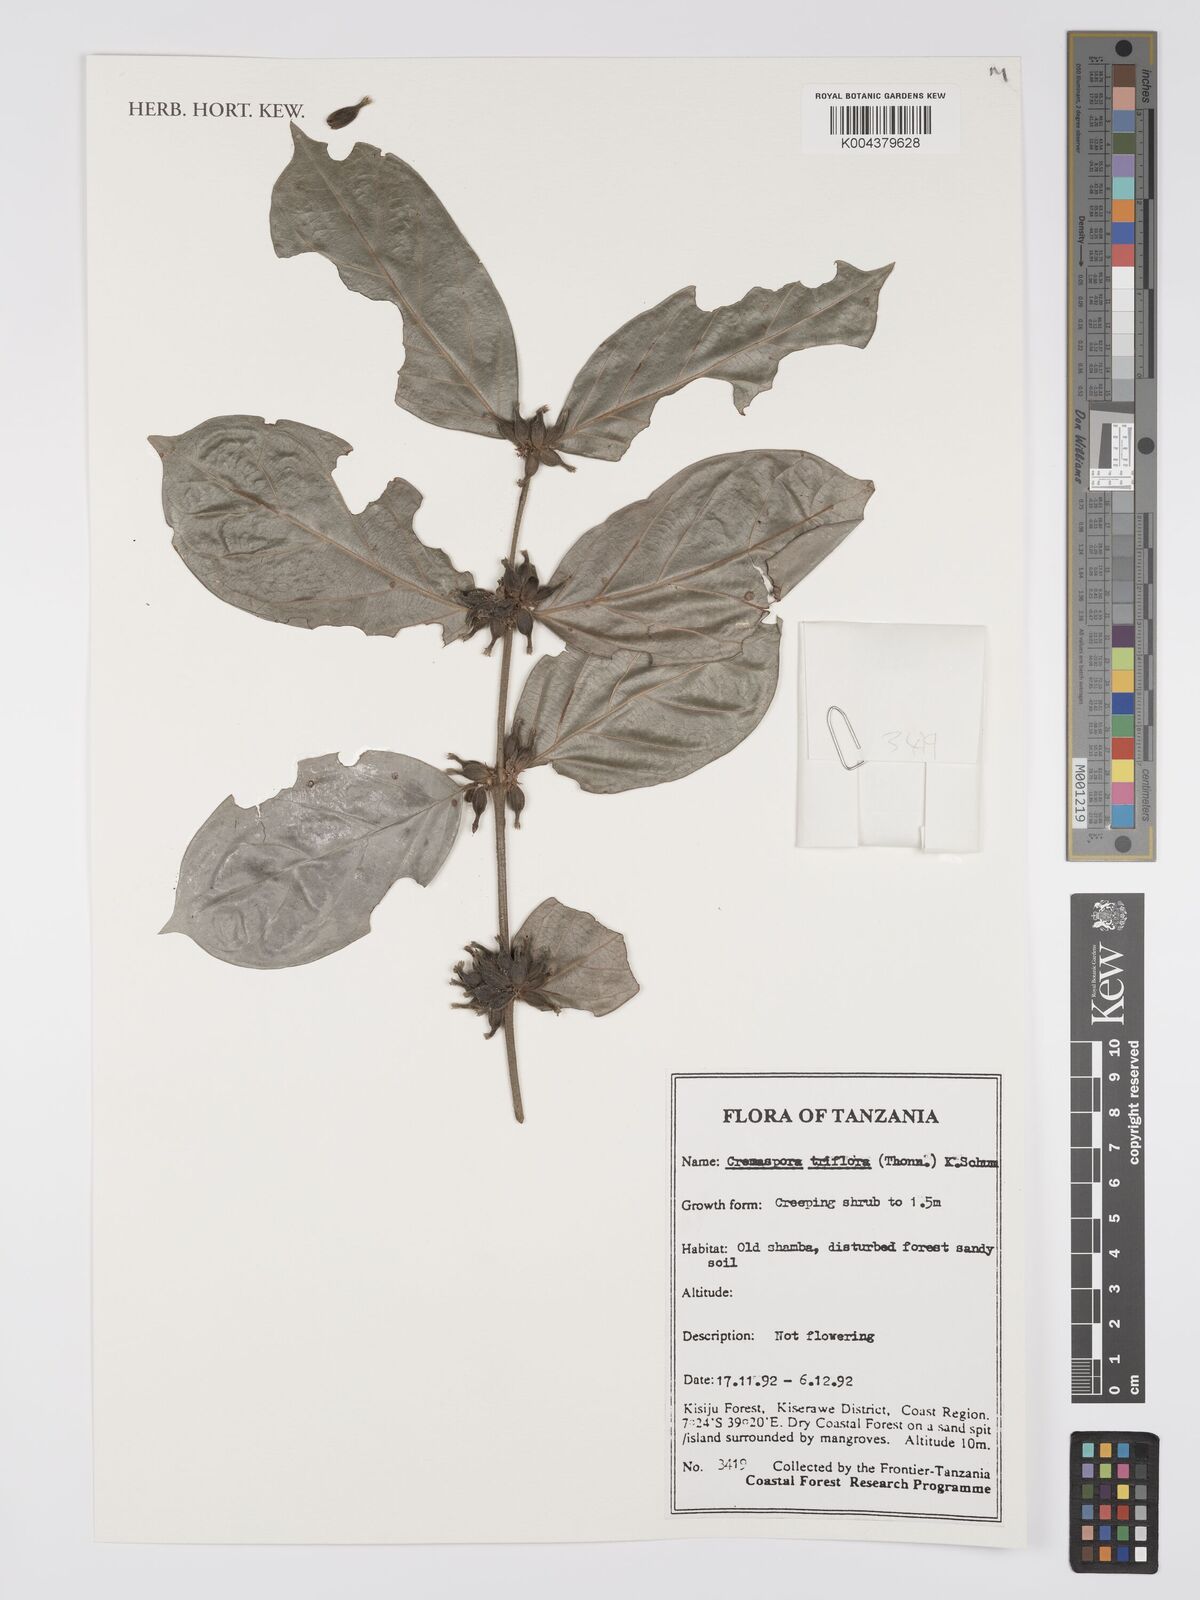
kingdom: Plantae
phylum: Tracheophyta
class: Magnoliopsida
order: Gentianales
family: Rubiaceae
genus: Cremaspora
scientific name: Cremaspora triflora
